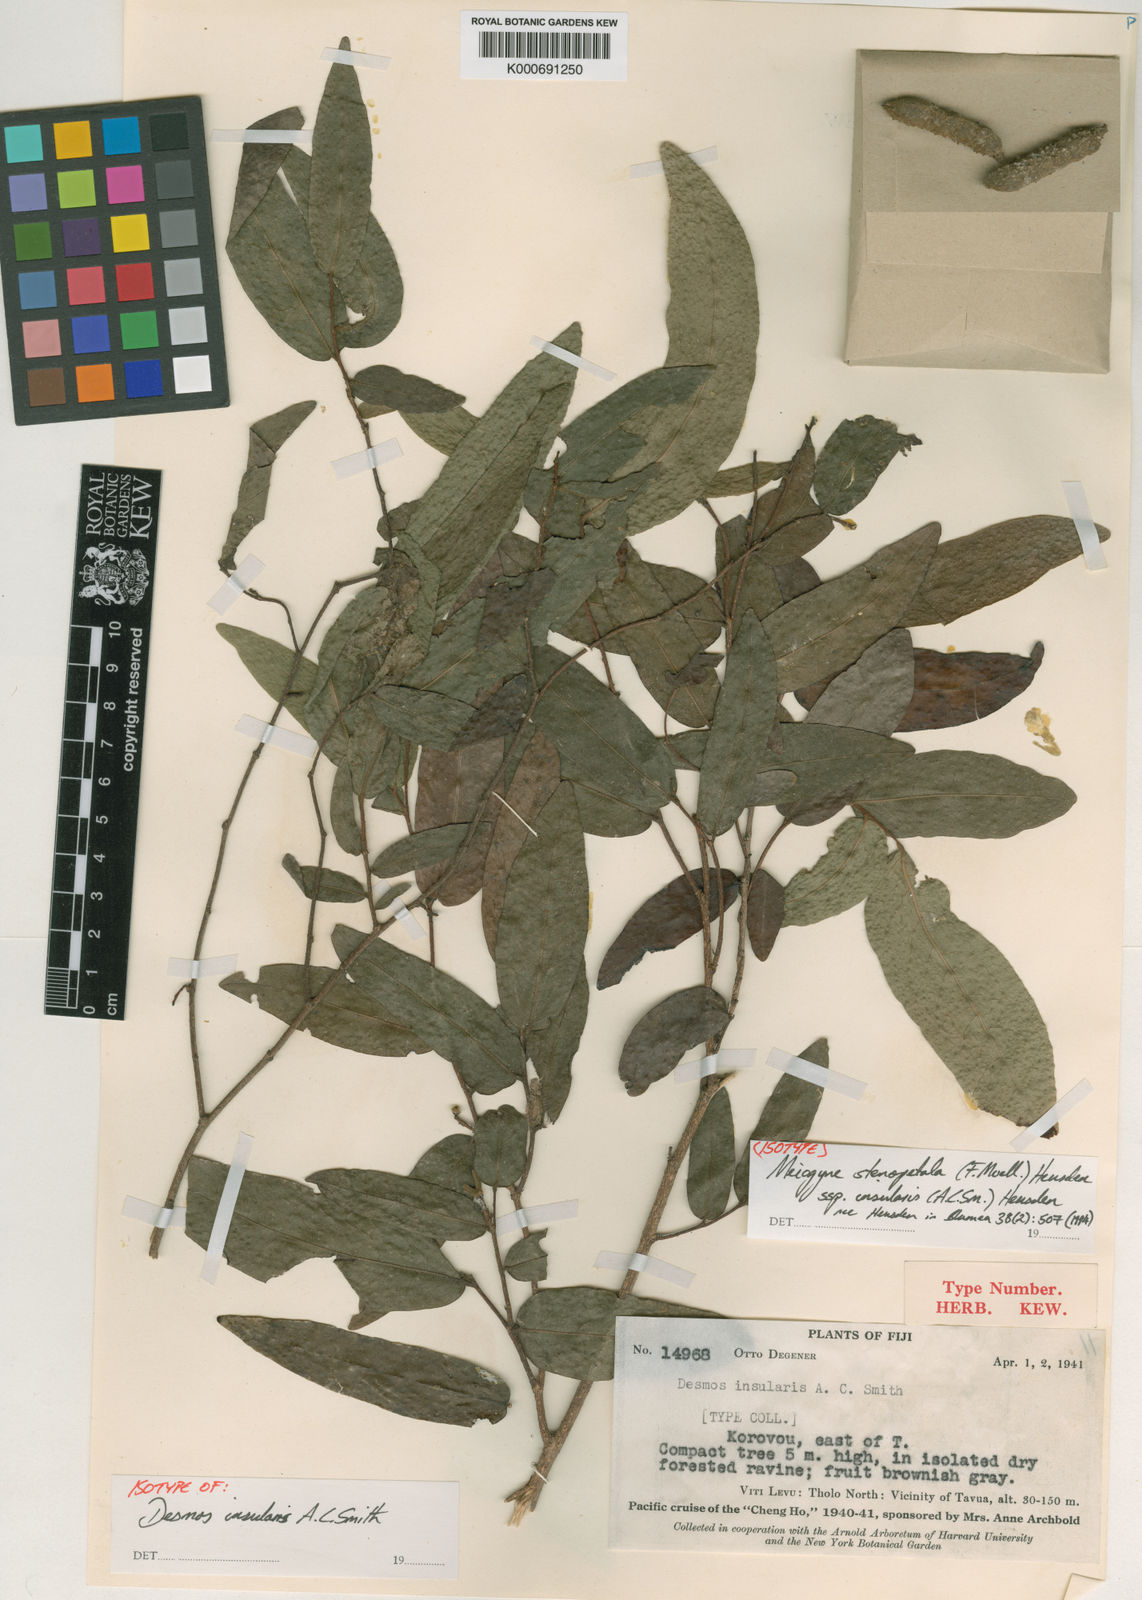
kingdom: Plantae
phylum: Tracheophyta
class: Magnoliopsida
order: Magnoliales
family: Annonaceae
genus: Meiogyne
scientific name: Meiogyne stenopetala
